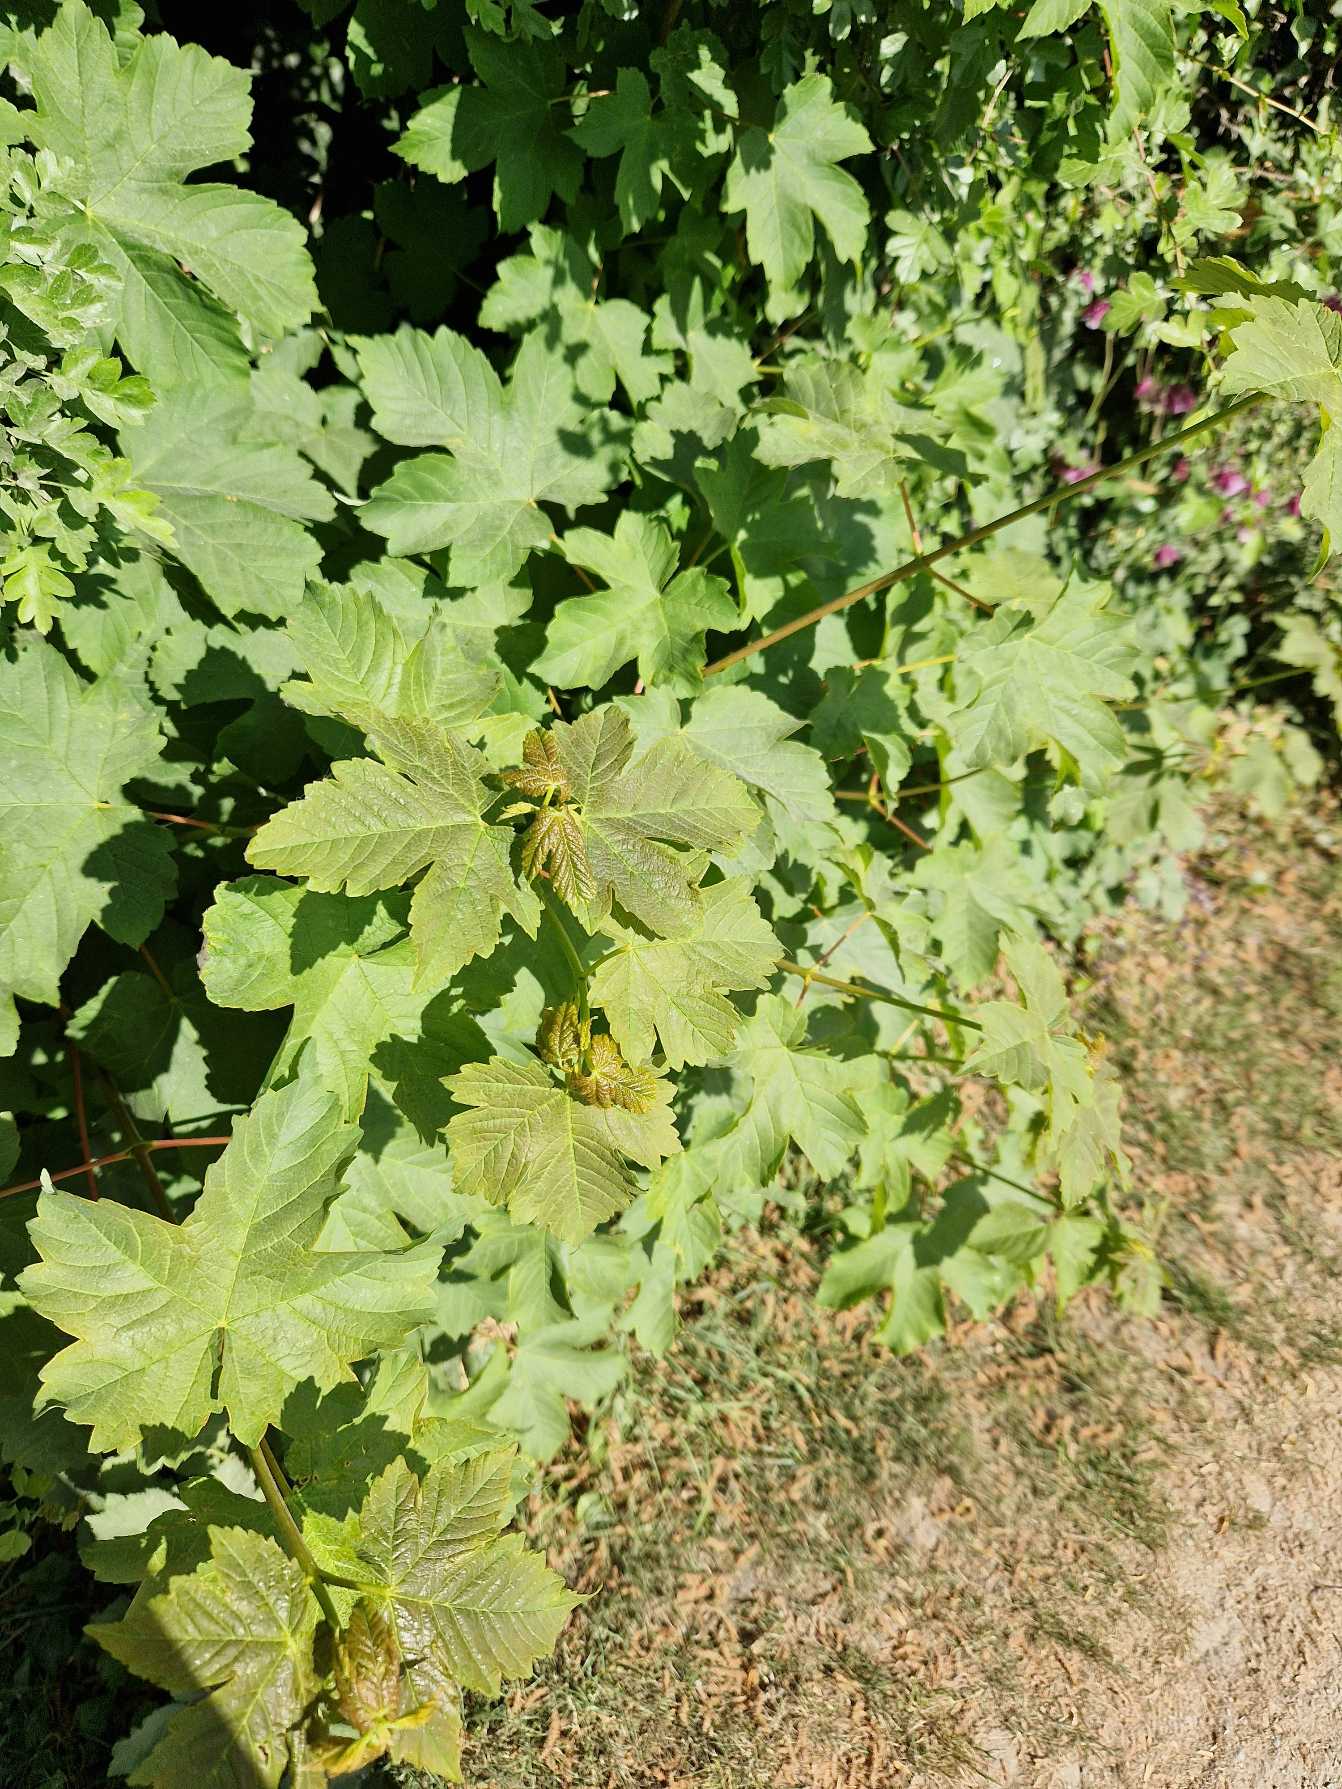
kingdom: Plantae
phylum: Tracheophyta
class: Magnoliopsida
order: Sapindales
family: Sapindaceae
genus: Acer
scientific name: Acer pseudoplatanus
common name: Ahorn
